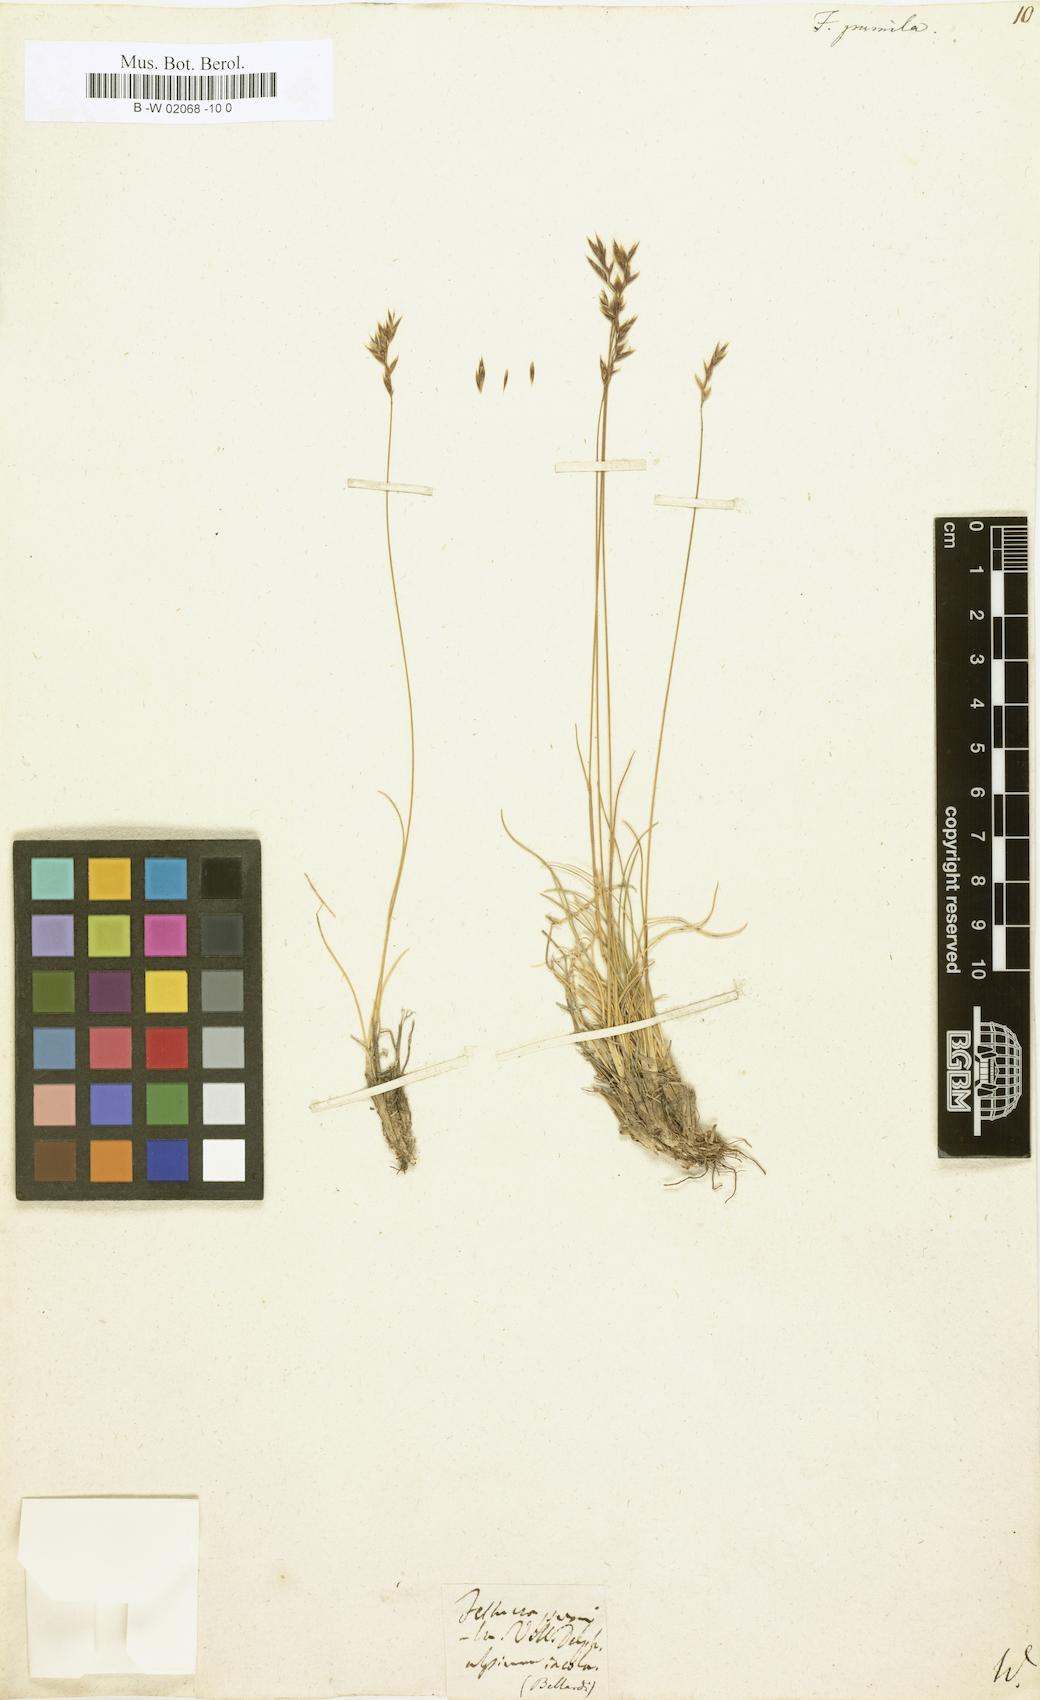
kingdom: Plantae
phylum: Tracheophyta
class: Liliopsida
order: Poales
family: Poaceae
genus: Festuca
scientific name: Festuca
